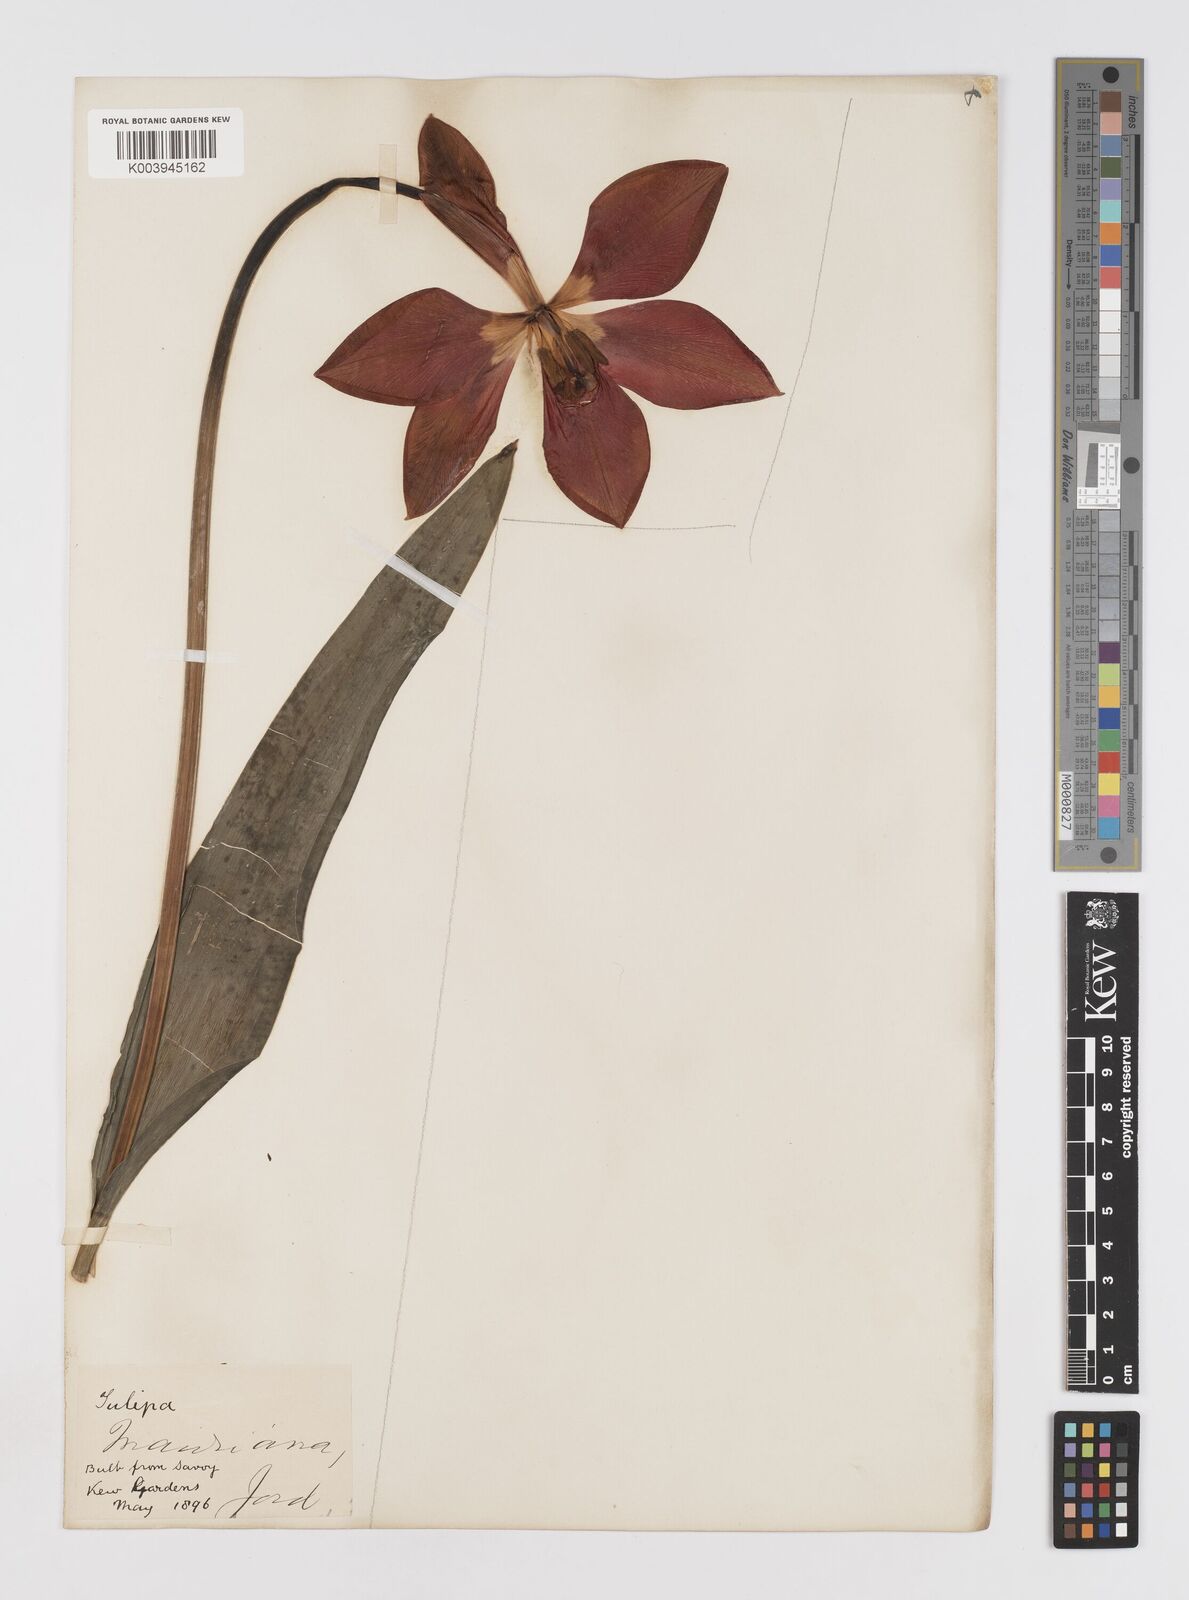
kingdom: Plantae
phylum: Tracheophyta
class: Liliopsida
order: Liliales
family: Liliaceae
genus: Tulipa
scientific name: Tulipa gesneriana
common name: Garden tulip
